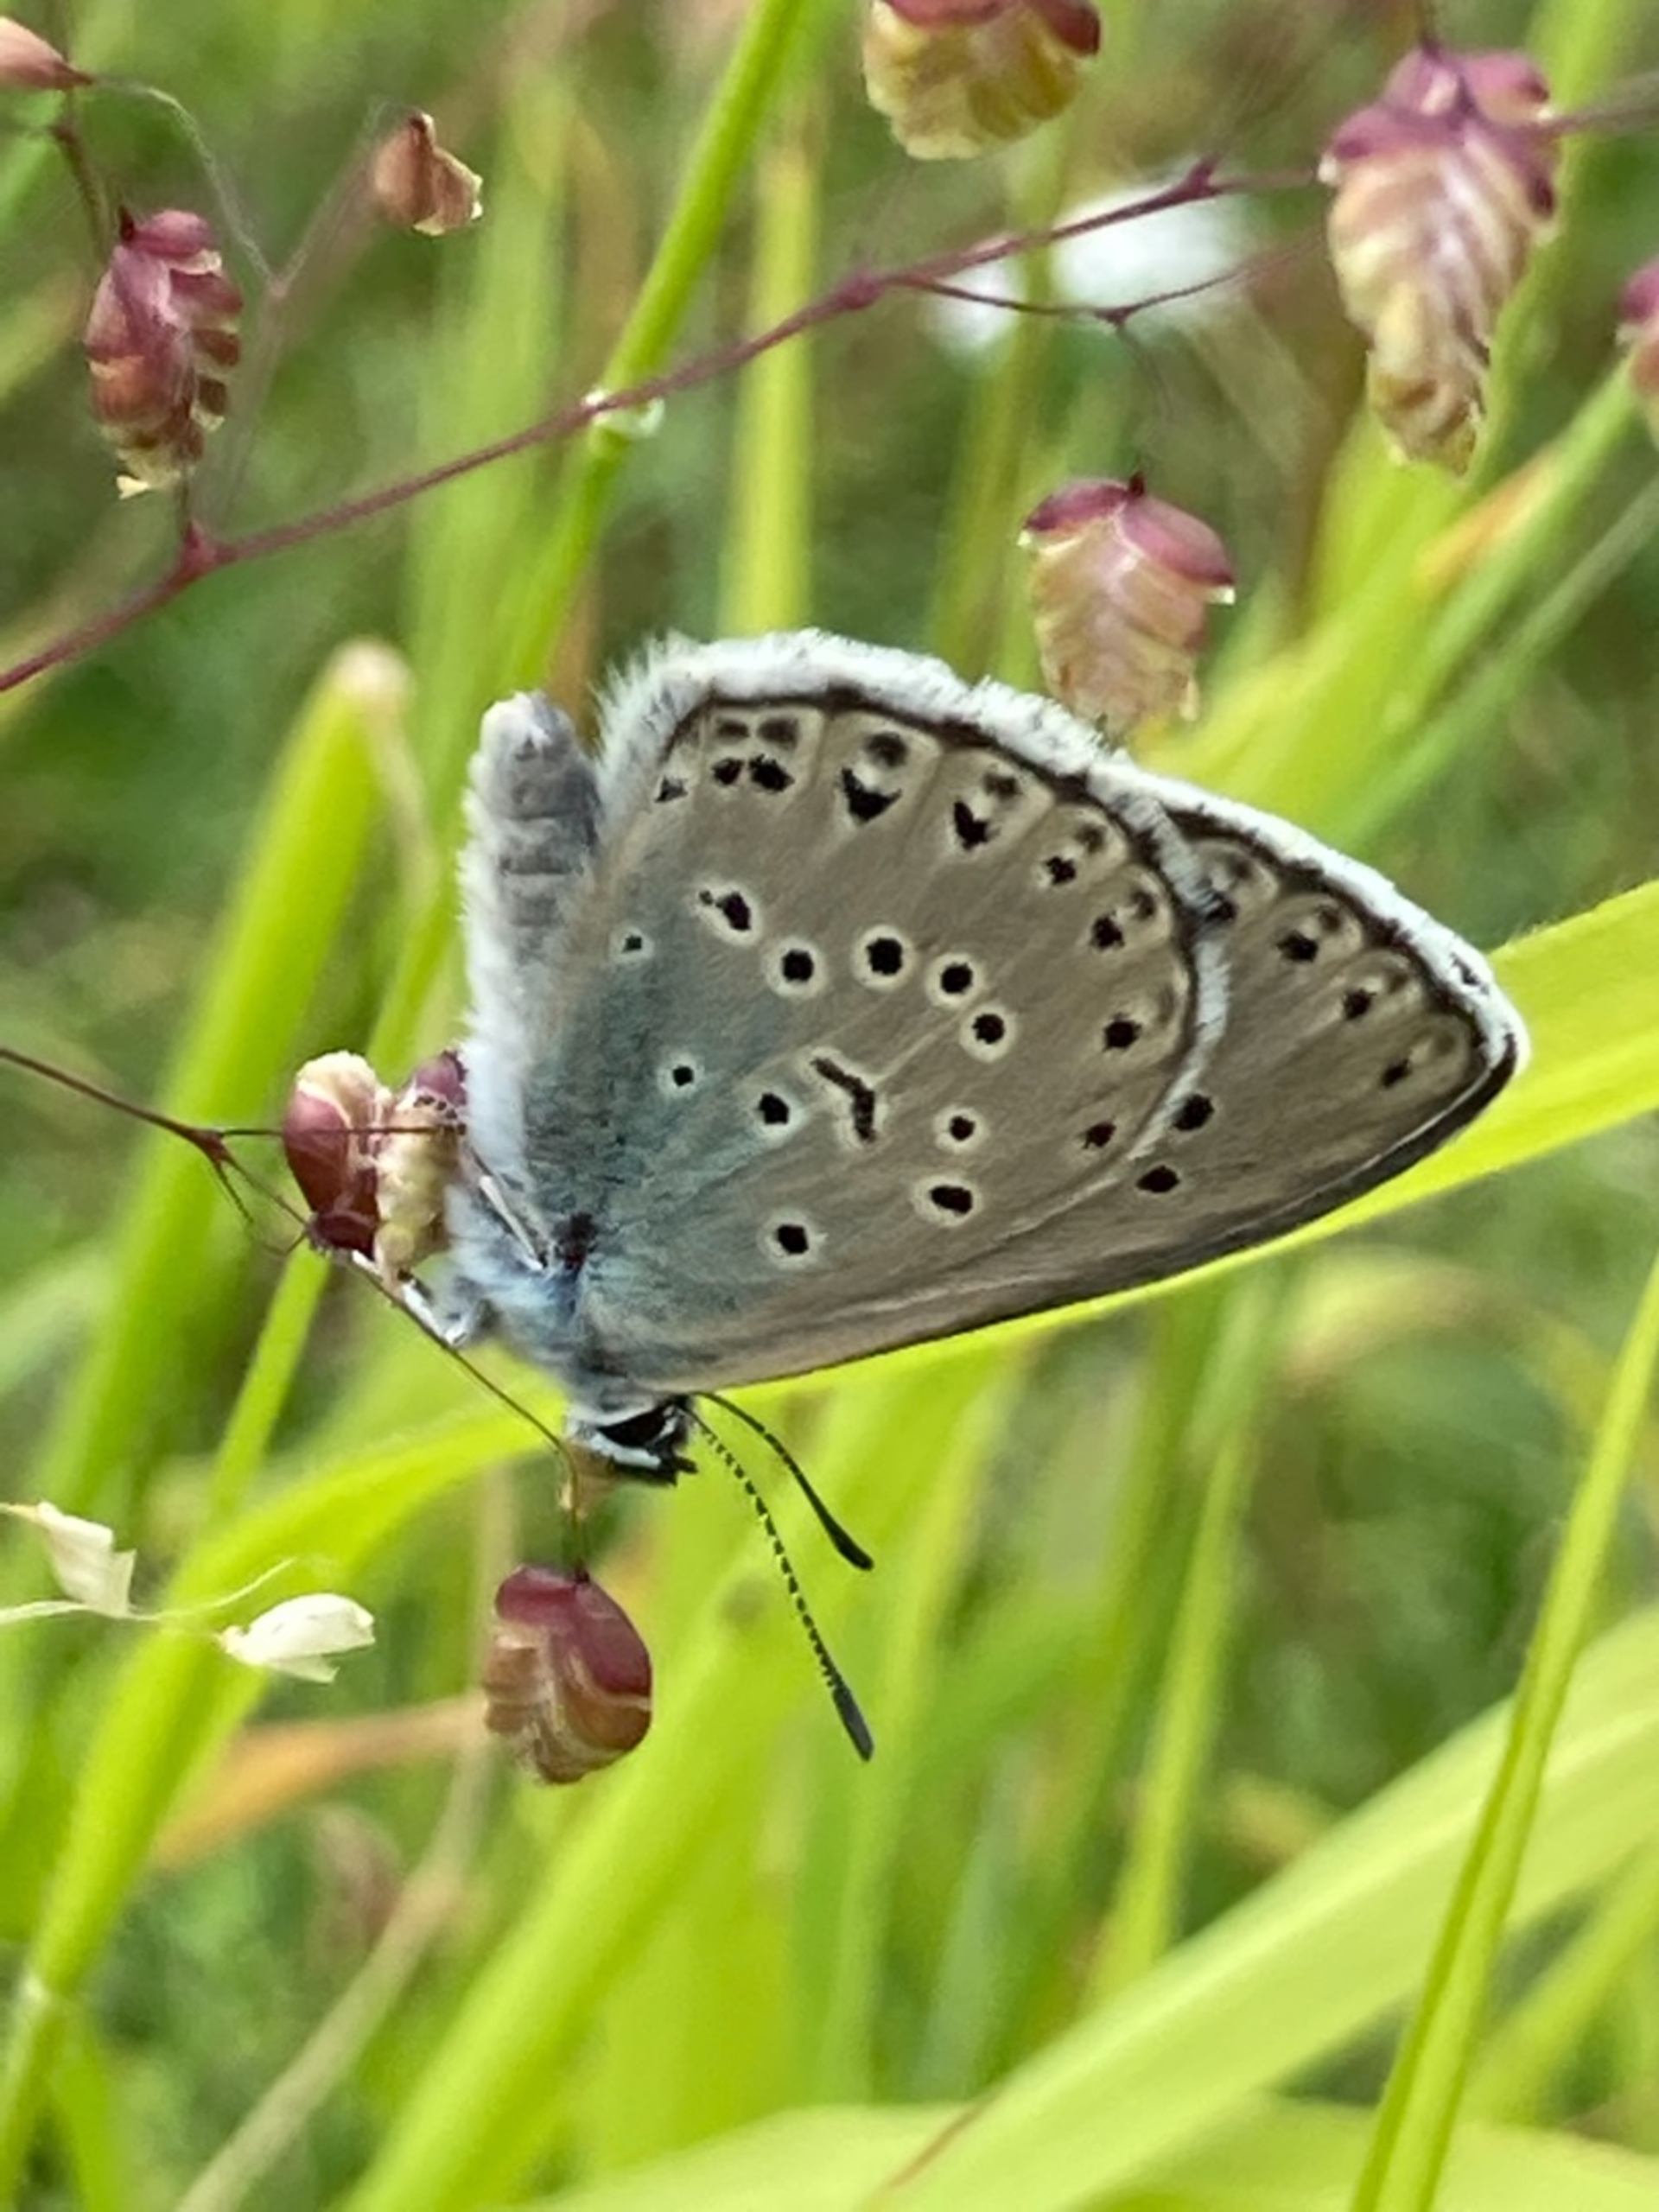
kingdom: Animalia
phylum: Arthropoda
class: Insecta
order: Lepidoptera
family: Lycaenidae
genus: Maculinea
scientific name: Maculinea arion
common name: Sortplettet blåfugl
